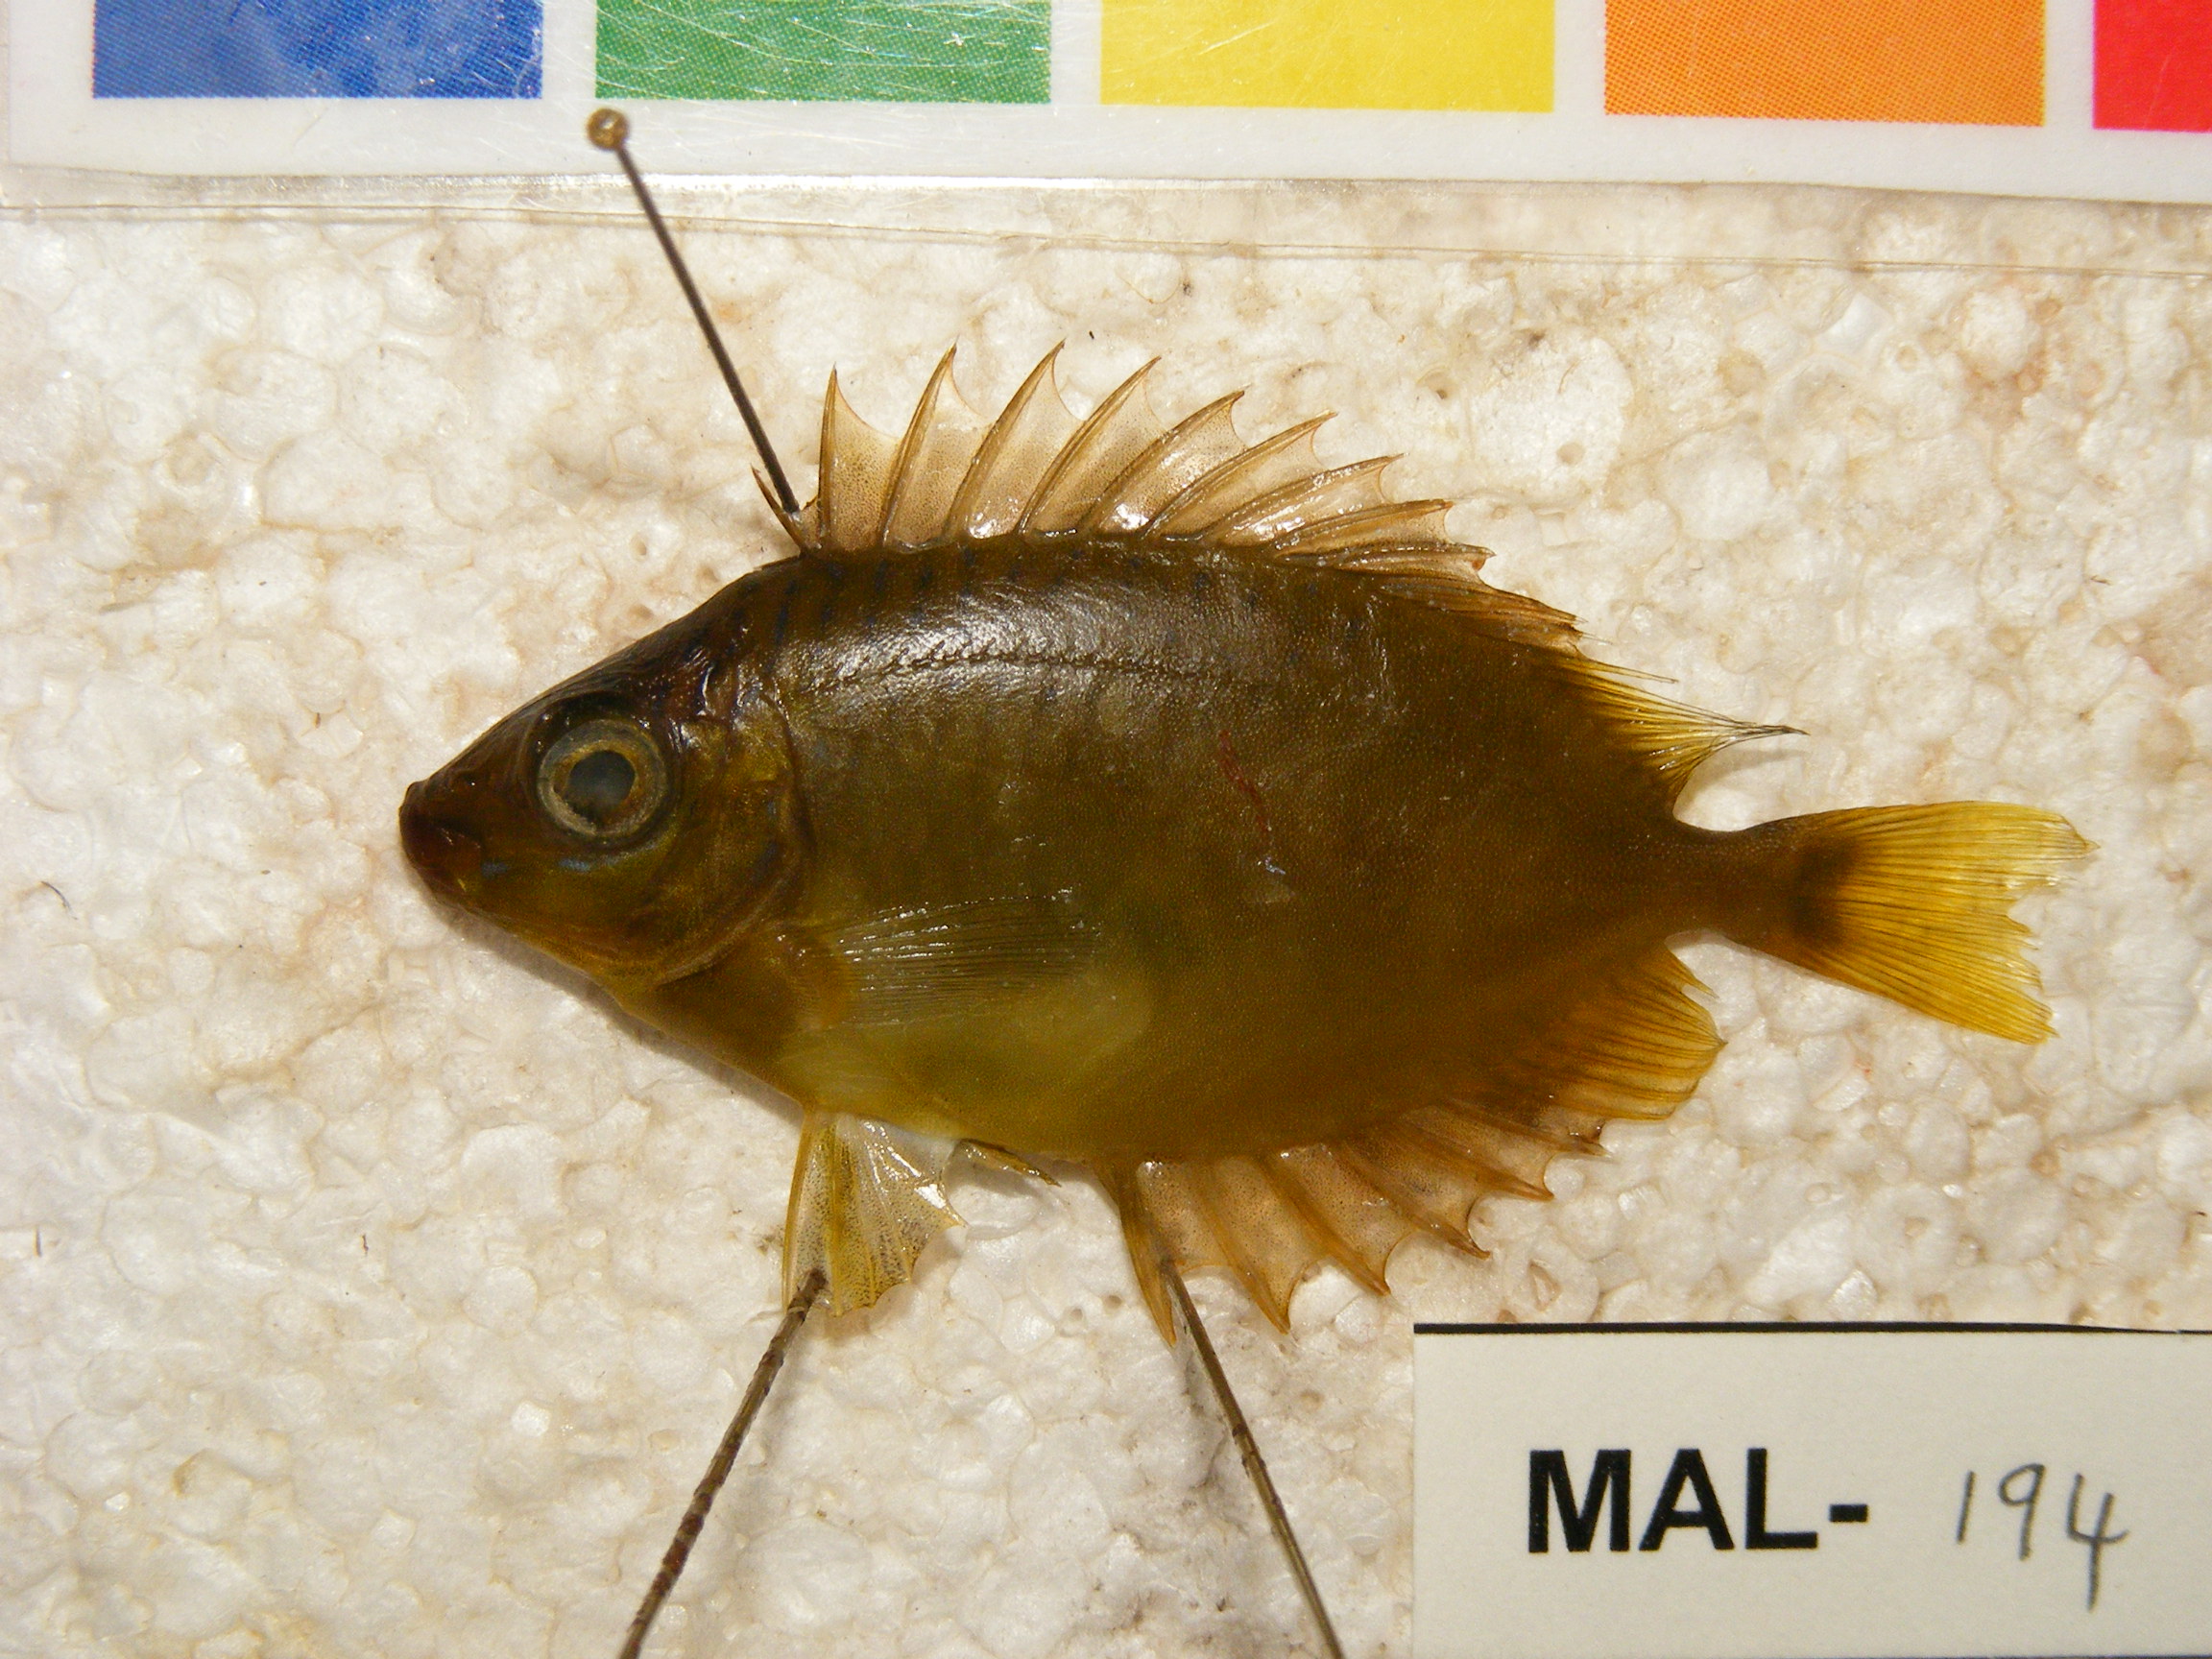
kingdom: Animalia
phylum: Chordata
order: Perciformes
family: Siganidae
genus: Siganus
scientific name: Siganus
